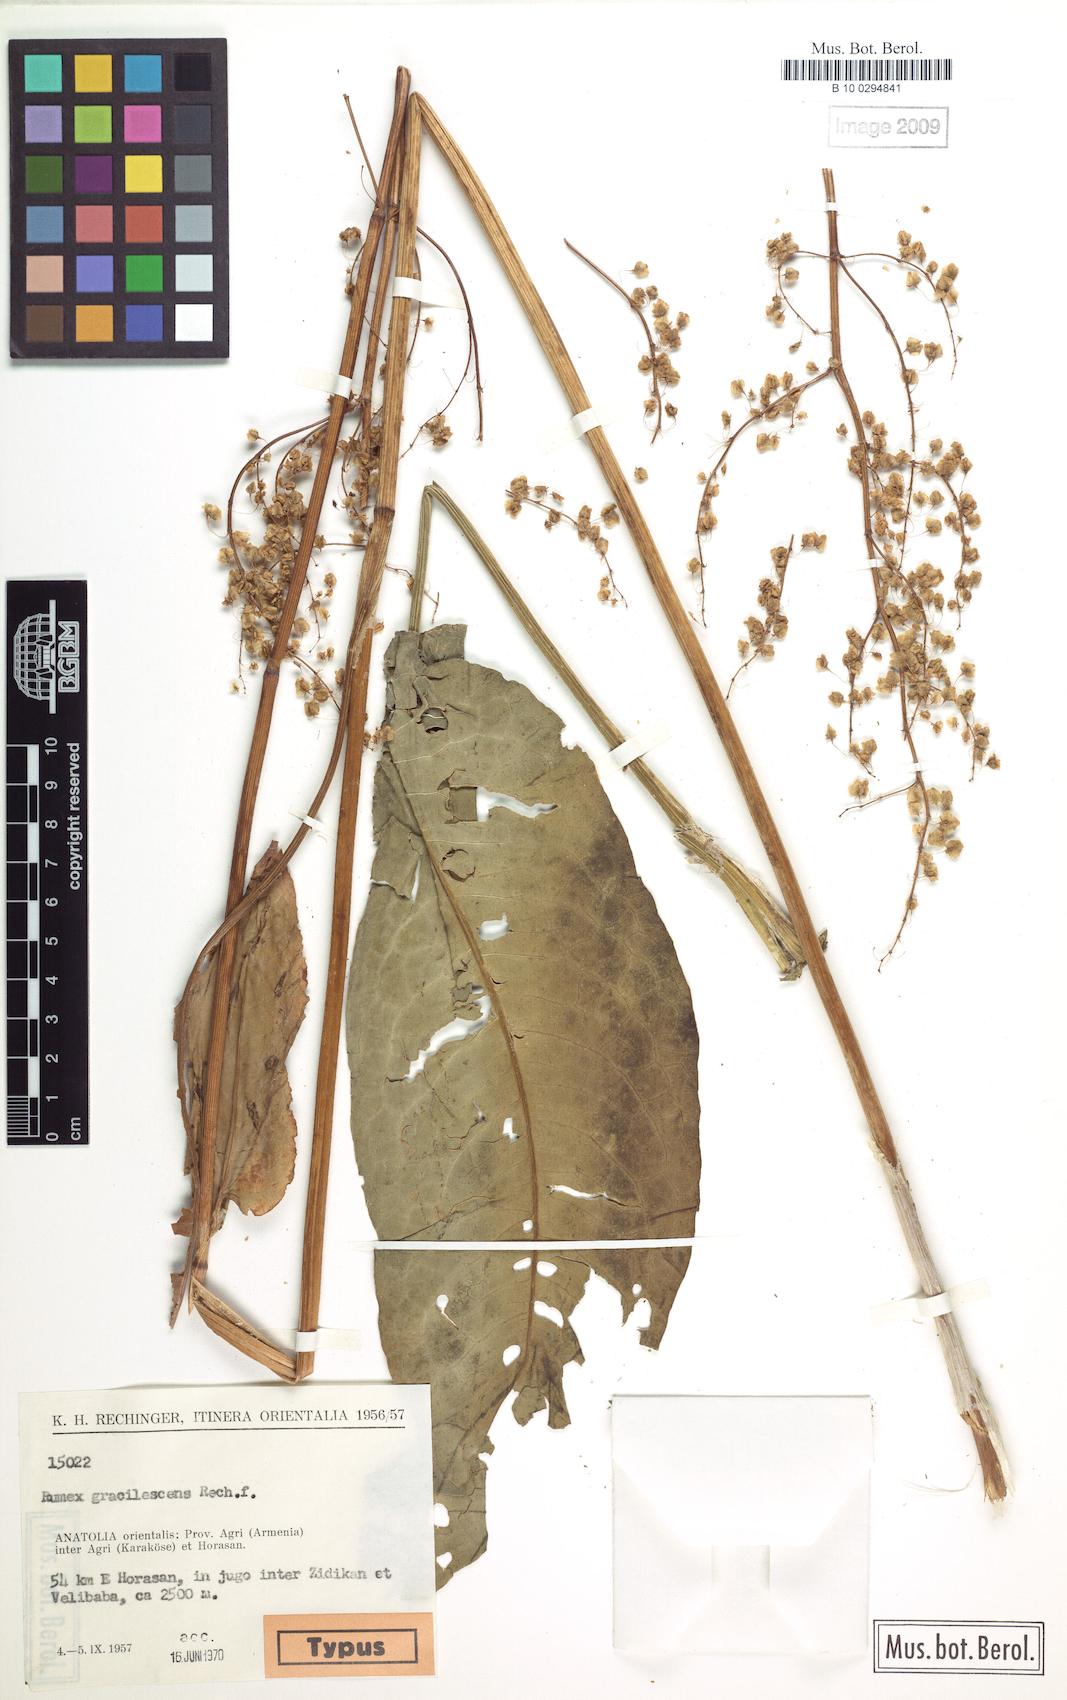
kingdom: Plantae
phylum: Tracheophyta
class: Magnoliopsida
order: Caryophyllales
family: Polygonaceae
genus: Rumex
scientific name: Rumex gracilescens
